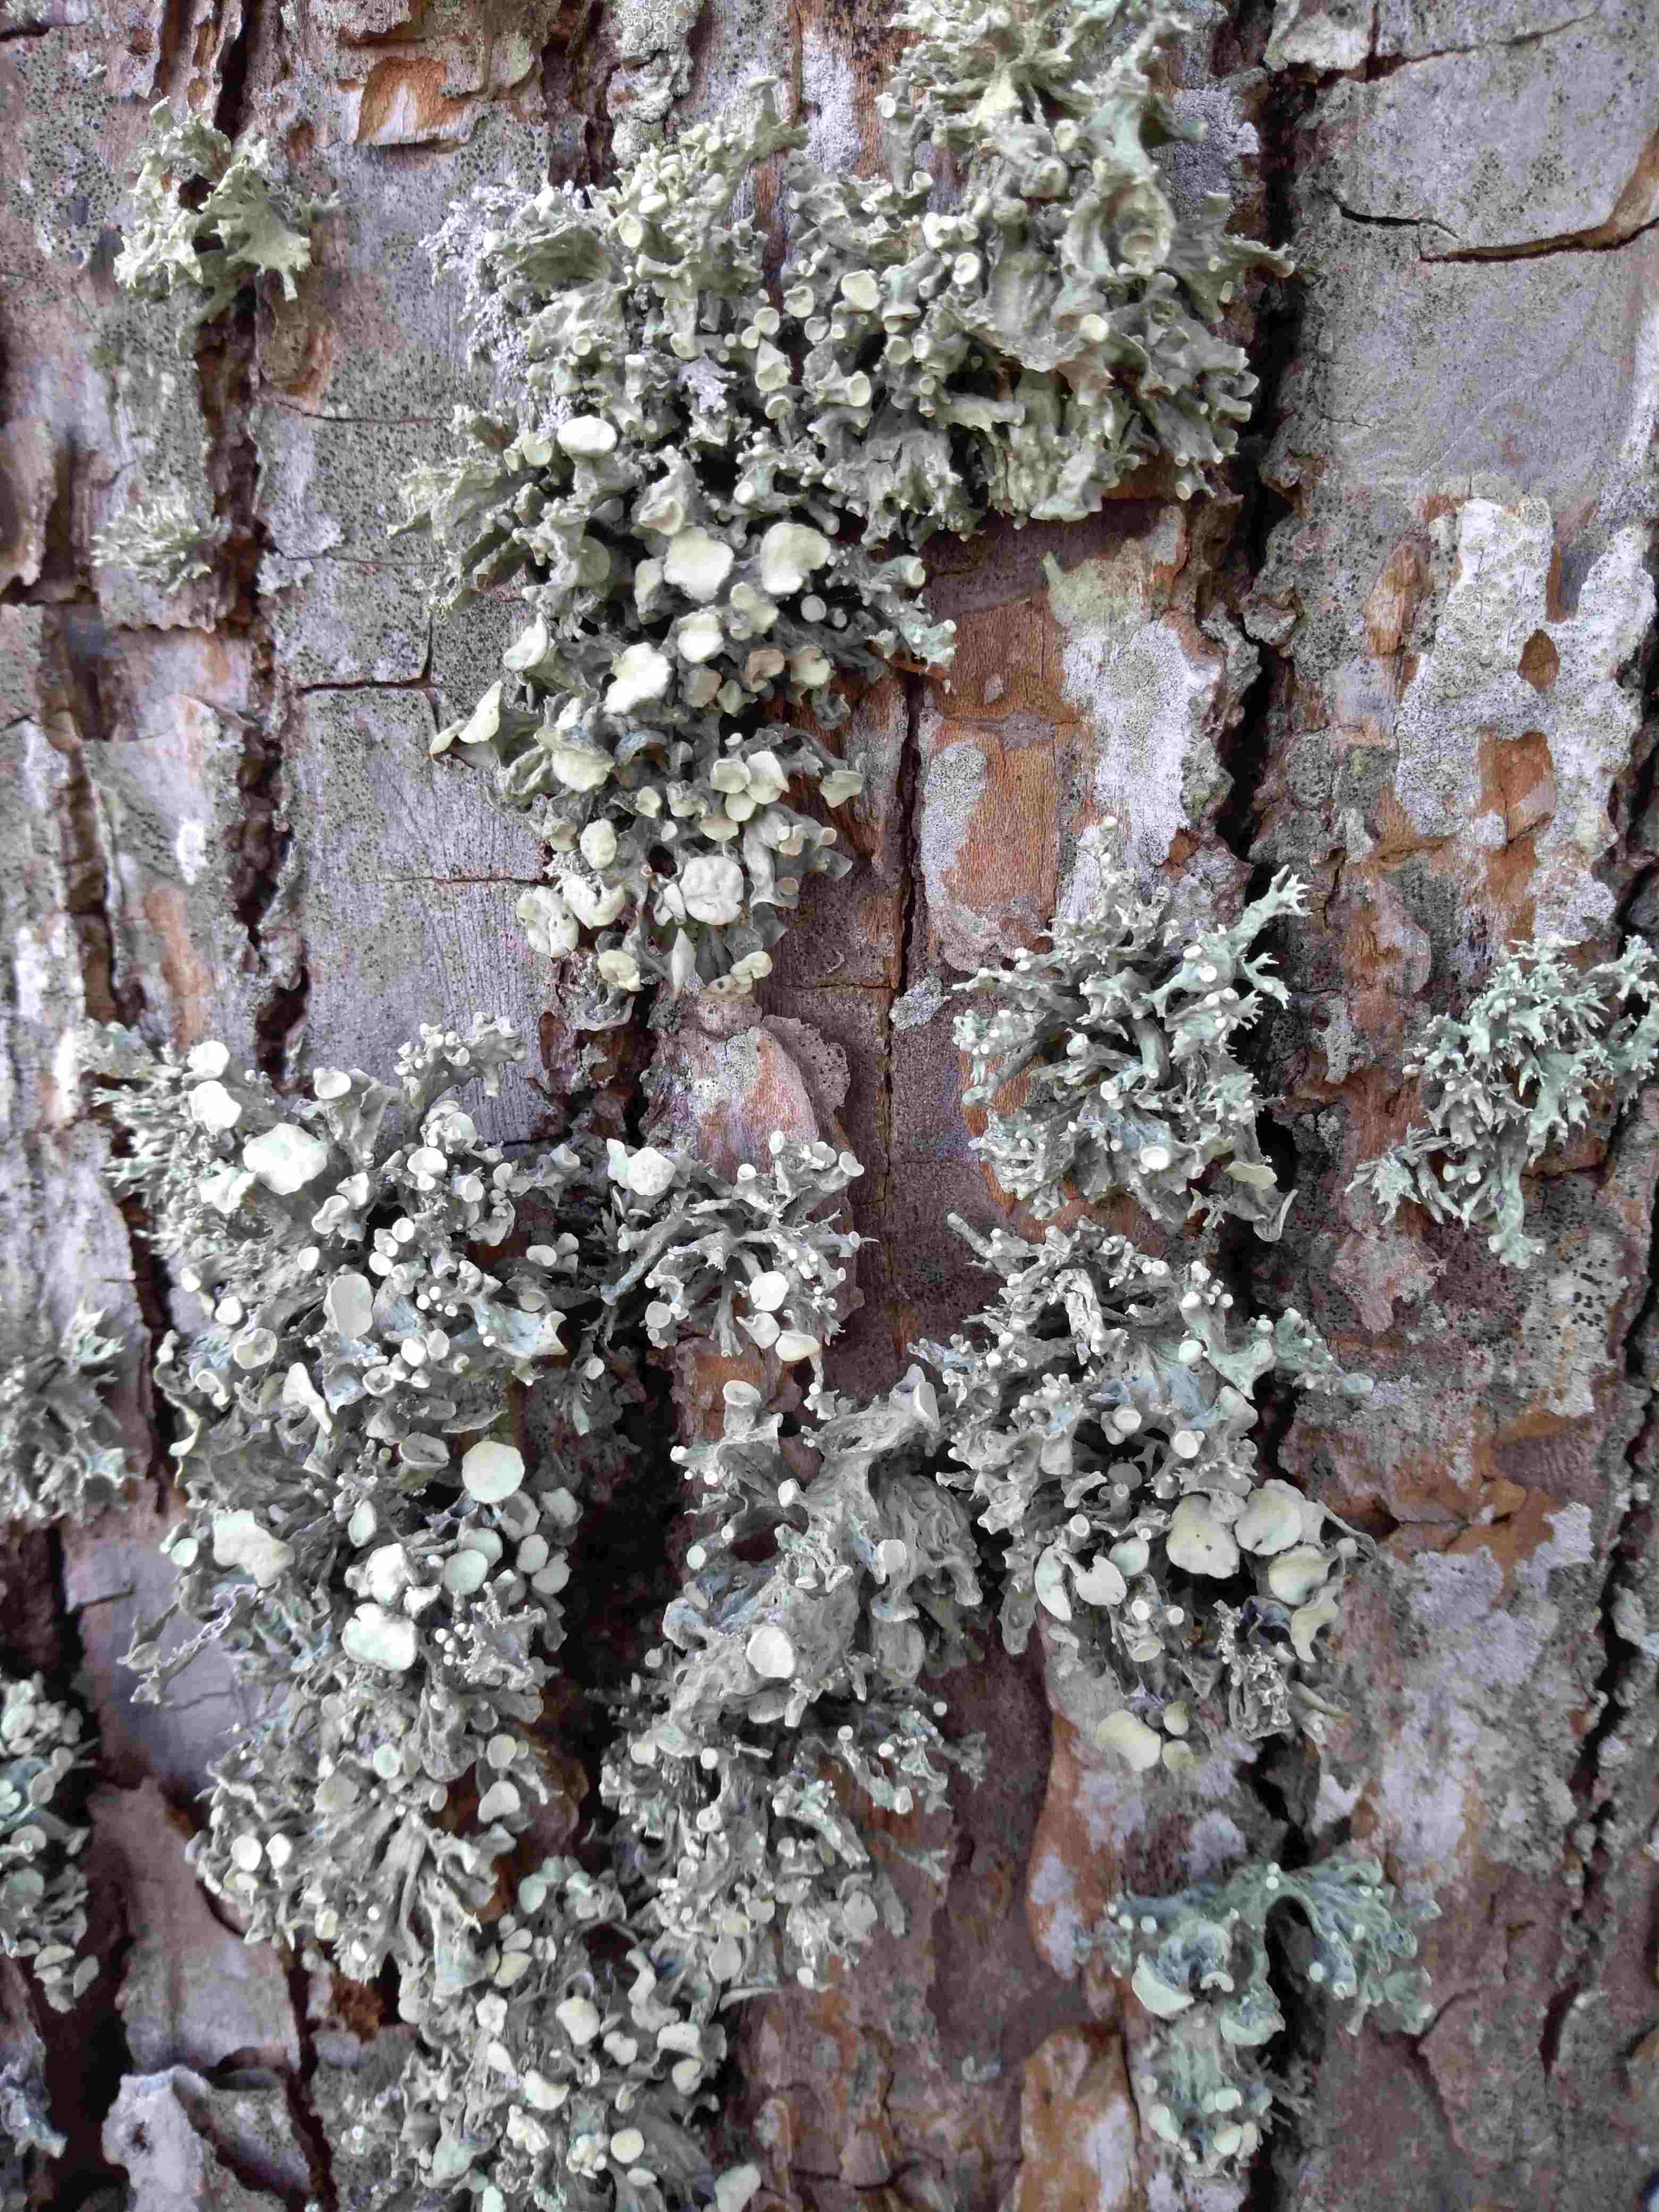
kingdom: Fungi
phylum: Ascomycota
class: Lecanoromycetes
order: Lecanorales
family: Ramalinaceae
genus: Ramalina
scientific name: Ramalina fastigiata
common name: tue-grenlav
